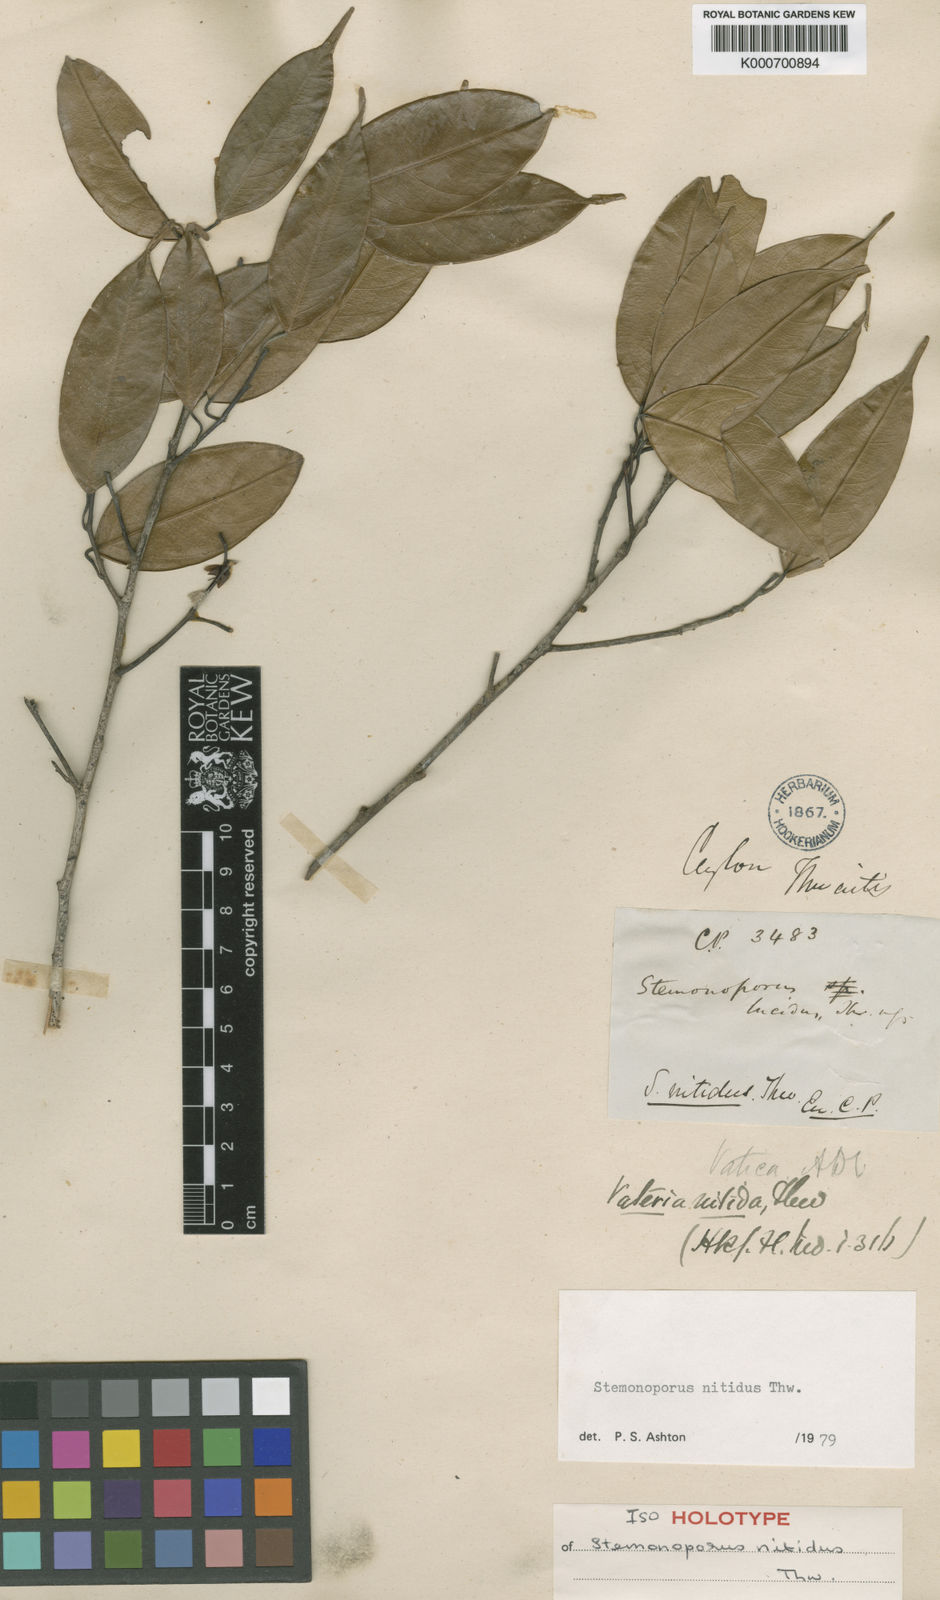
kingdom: Plantae
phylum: Tracheophyta
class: Magnoliopsida
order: Malvales
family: Dipterocarpaceae
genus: Stemonoporus
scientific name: Stemonoporus nitidus
